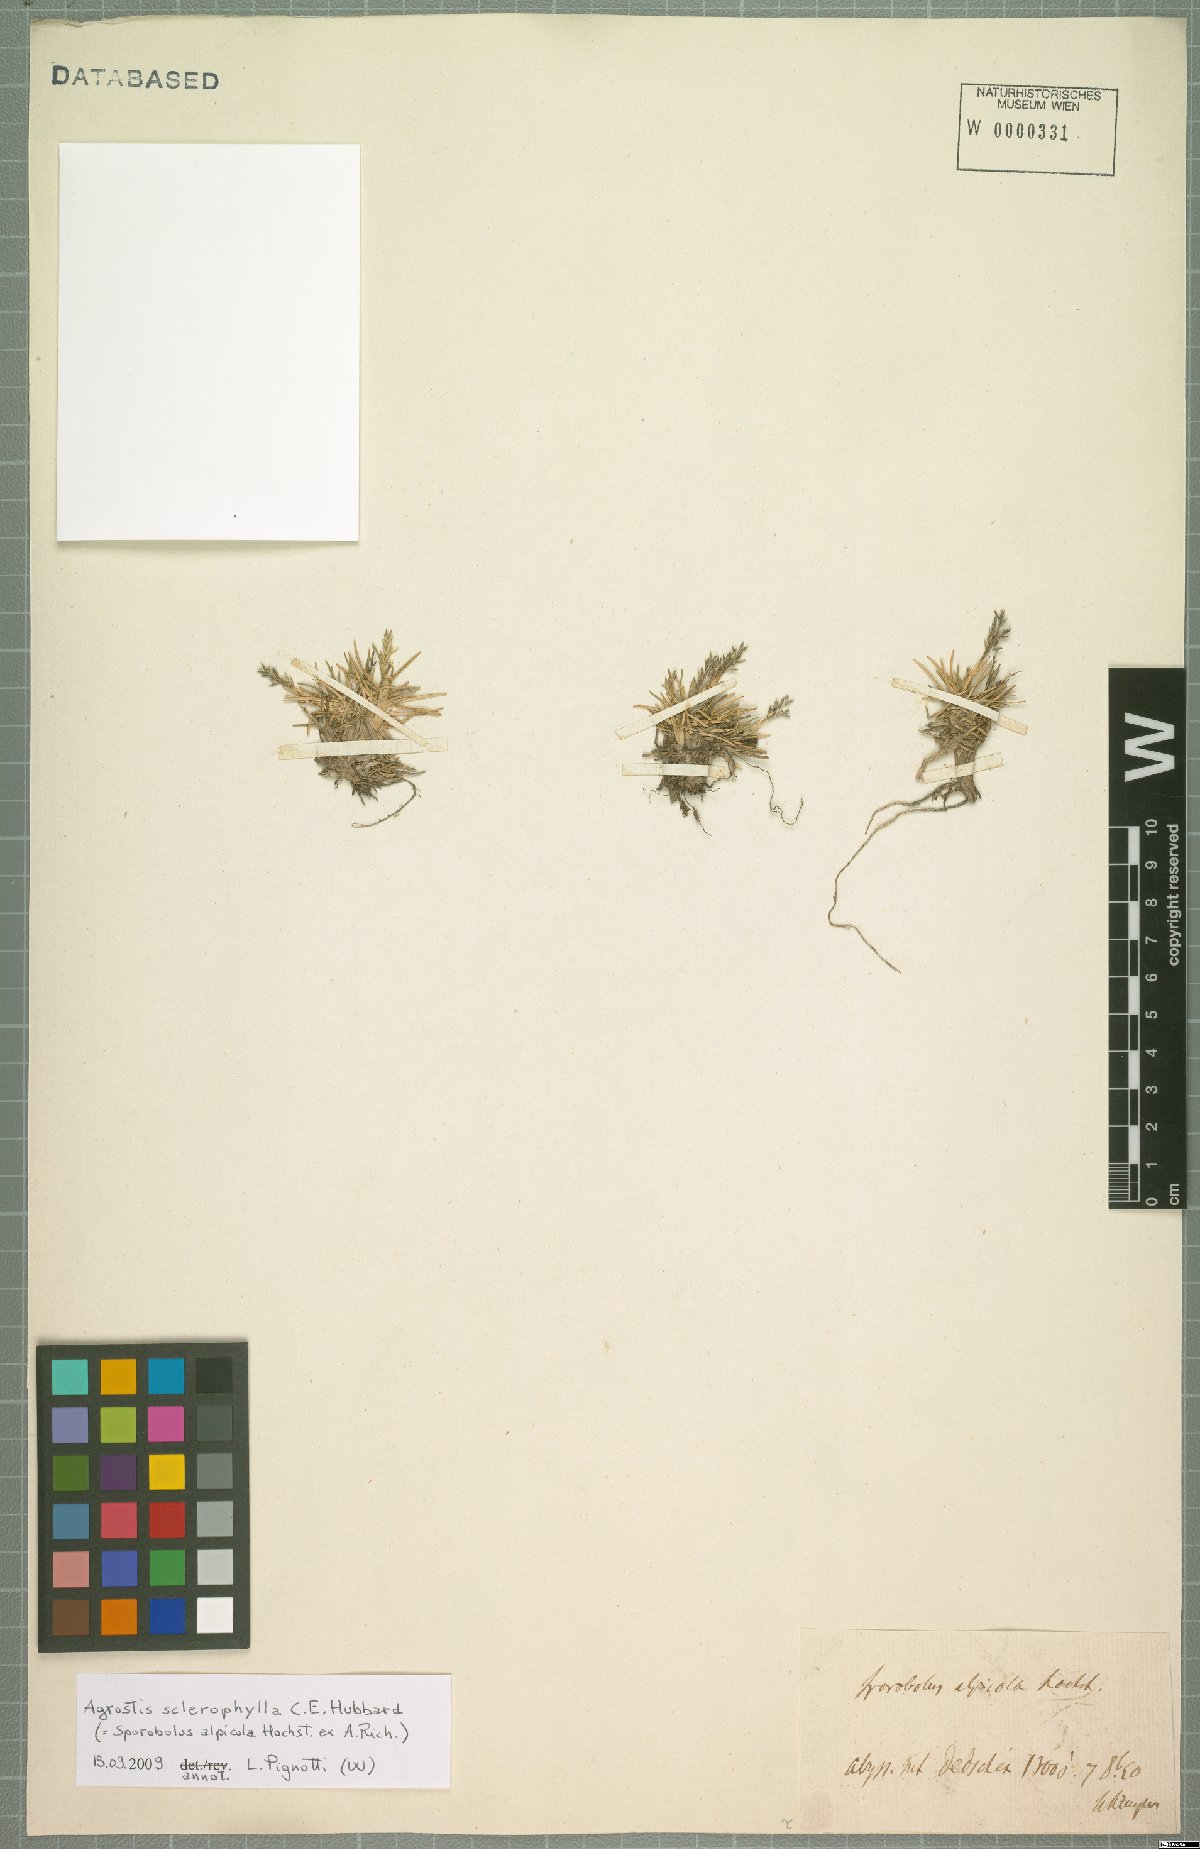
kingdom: Plantae
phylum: Tracheophyta
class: Liliopsida
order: Poales
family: Poaceae
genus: Agrostis
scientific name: Agrostis sclerophylla
